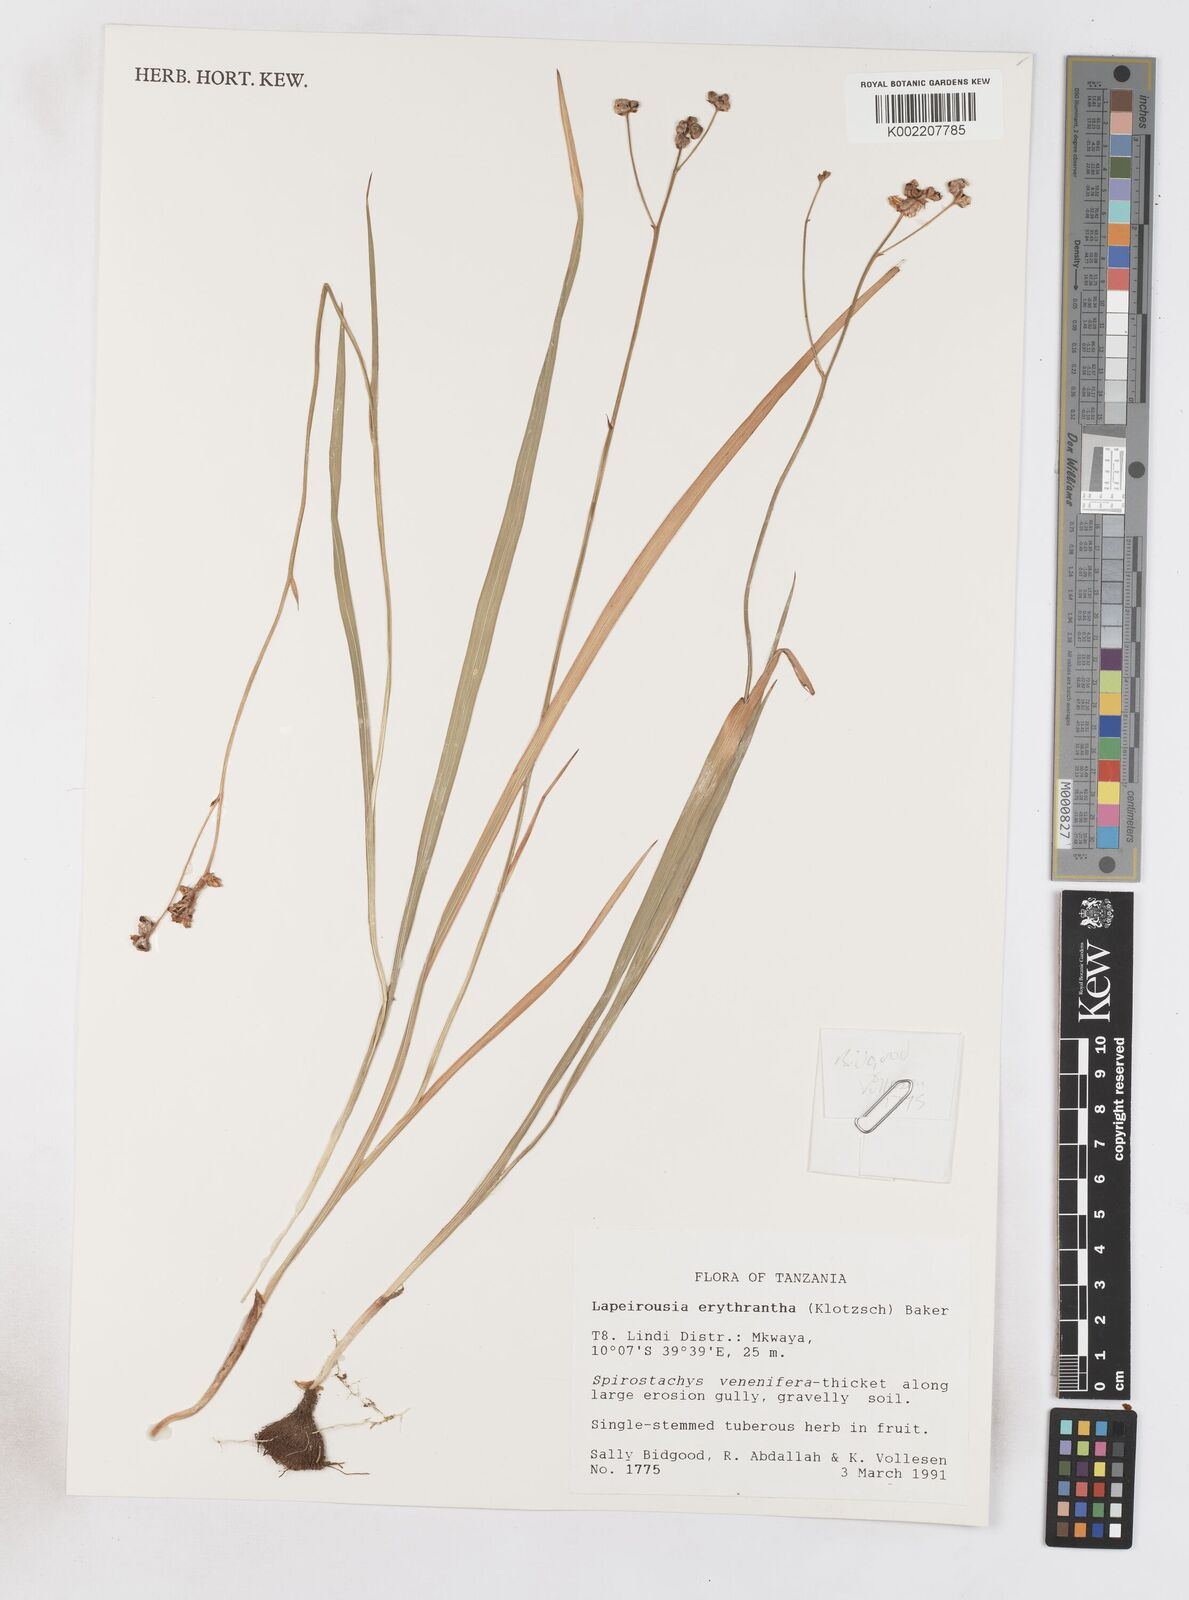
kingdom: Plantae
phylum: Tracheophyta
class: Liliopsida
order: Asparagales
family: Iridaceae
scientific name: Iridaceae
